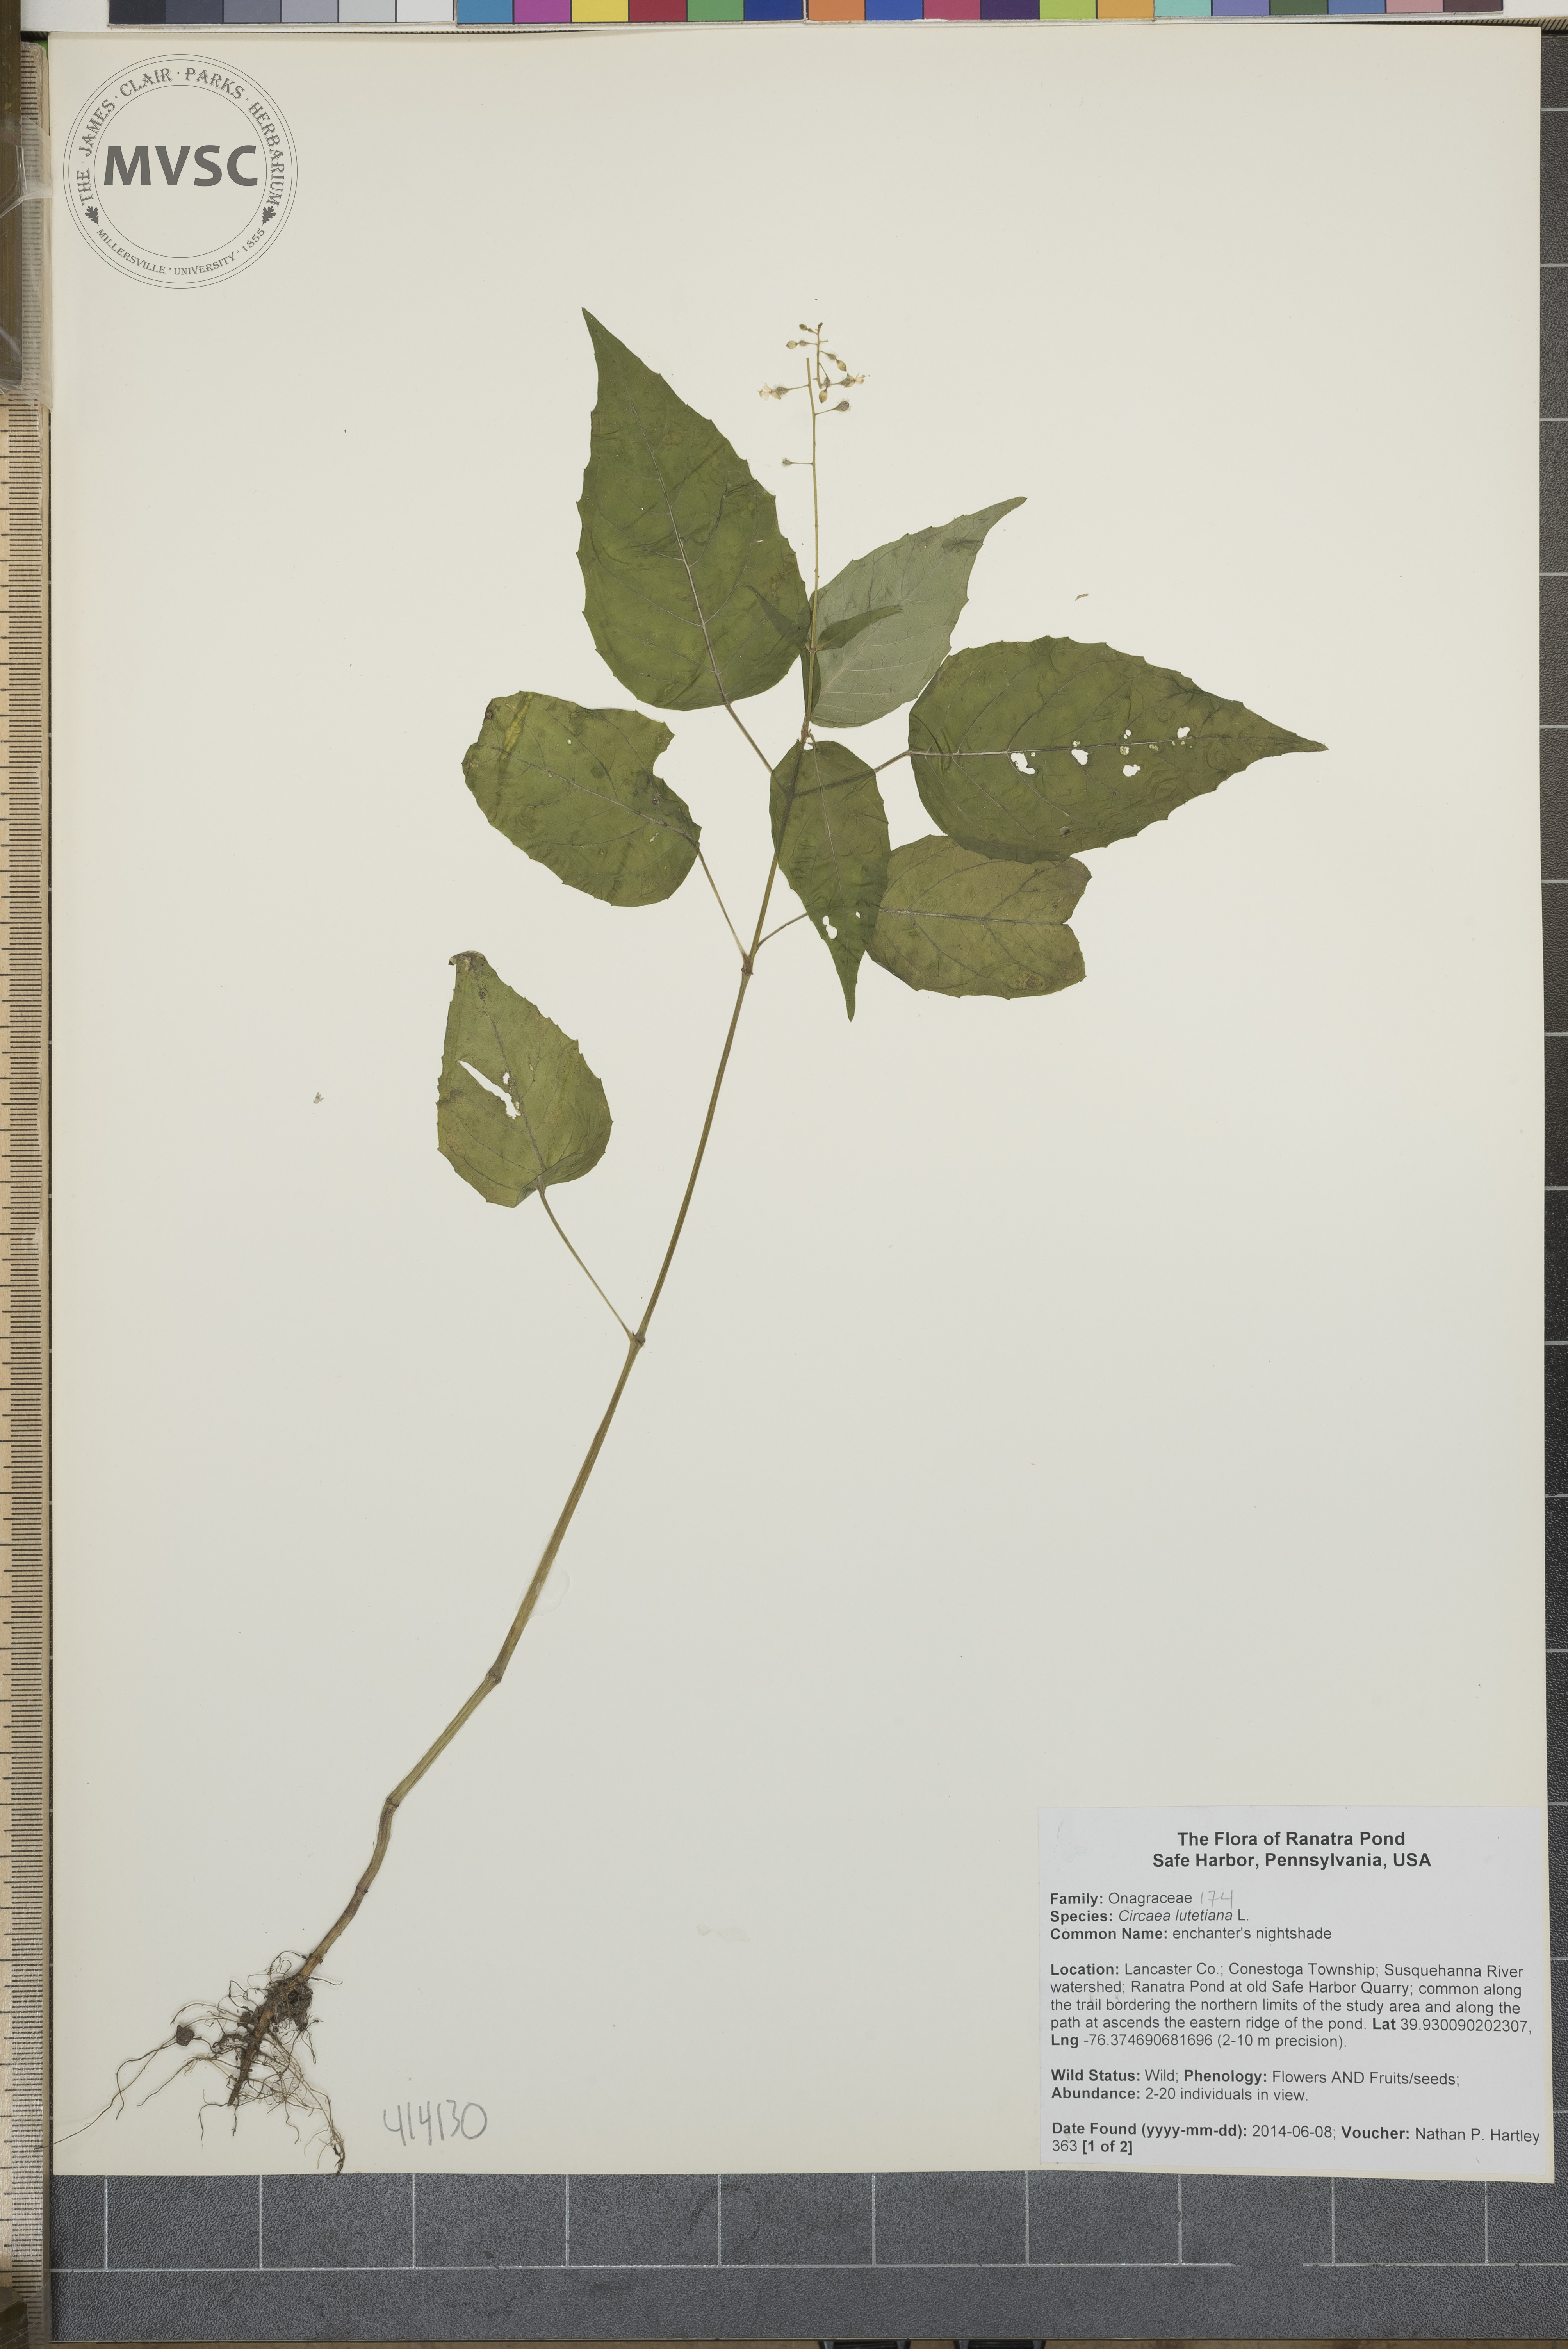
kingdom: Plantae
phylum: Tracheophyta
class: Magnoliopsida
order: Myrtales
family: Onagraceae
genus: Circaea
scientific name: Circaea canadensis
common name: enchanter's nightshade
